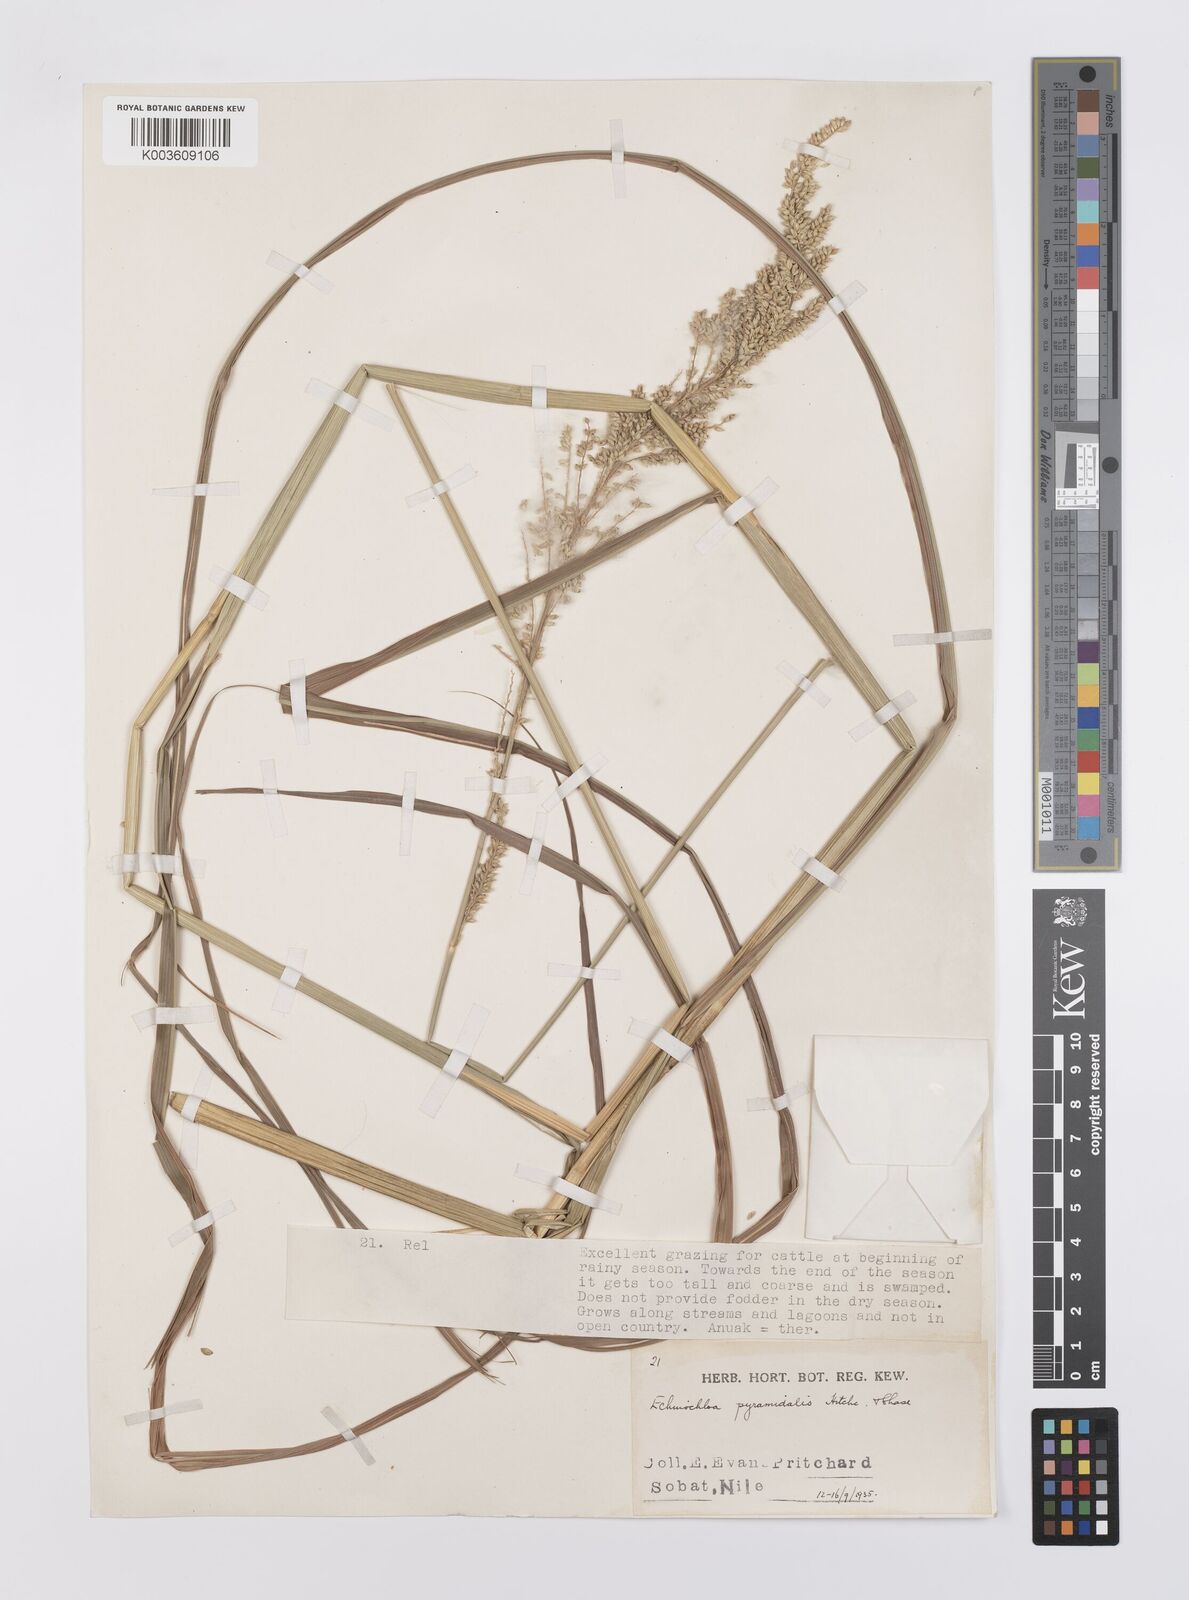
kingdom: Plantae
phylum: Tracheophyta
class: Liliopsida
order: Poales
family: Poaceae
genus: Echinochloa
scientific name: Echinochloa pyramidalis
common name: Antelope grass
